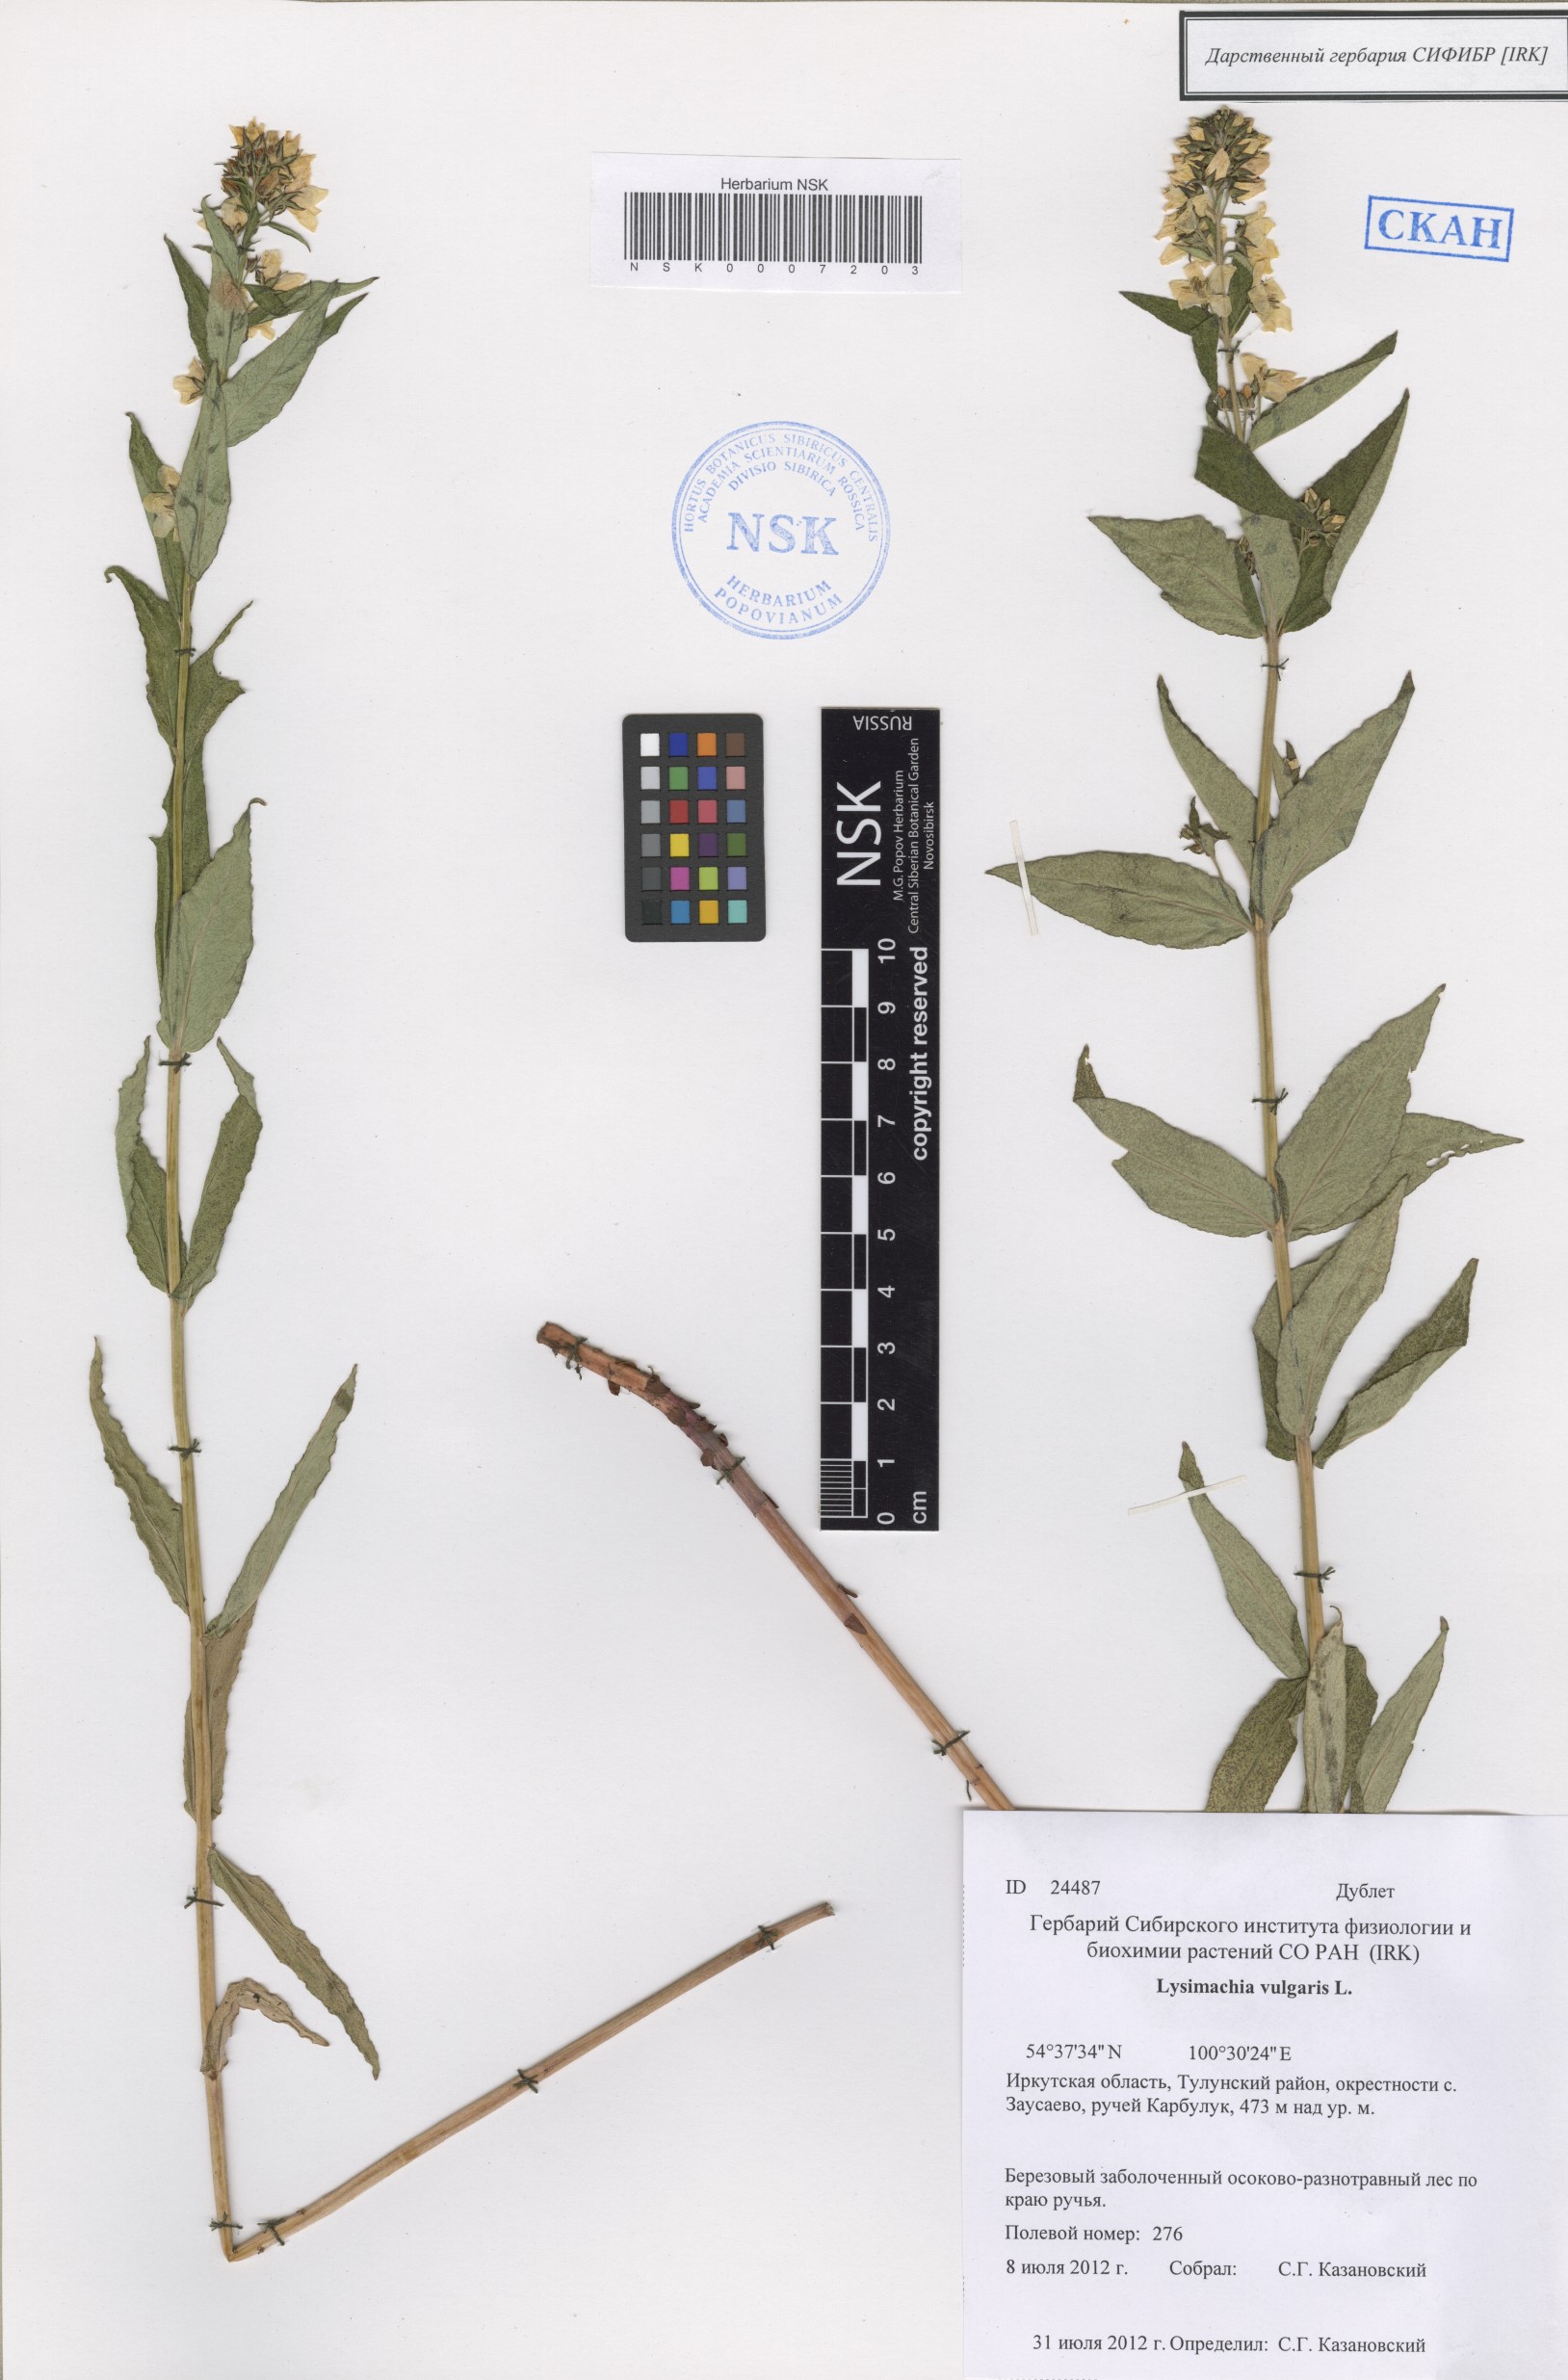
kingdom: Plantae
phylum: Tracheophyta
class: Magnoliopsida
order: Ericales
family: Primulaceae
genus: Lysimachia
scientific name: Lysimachia vulgaris
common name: Yellow loosestrife
